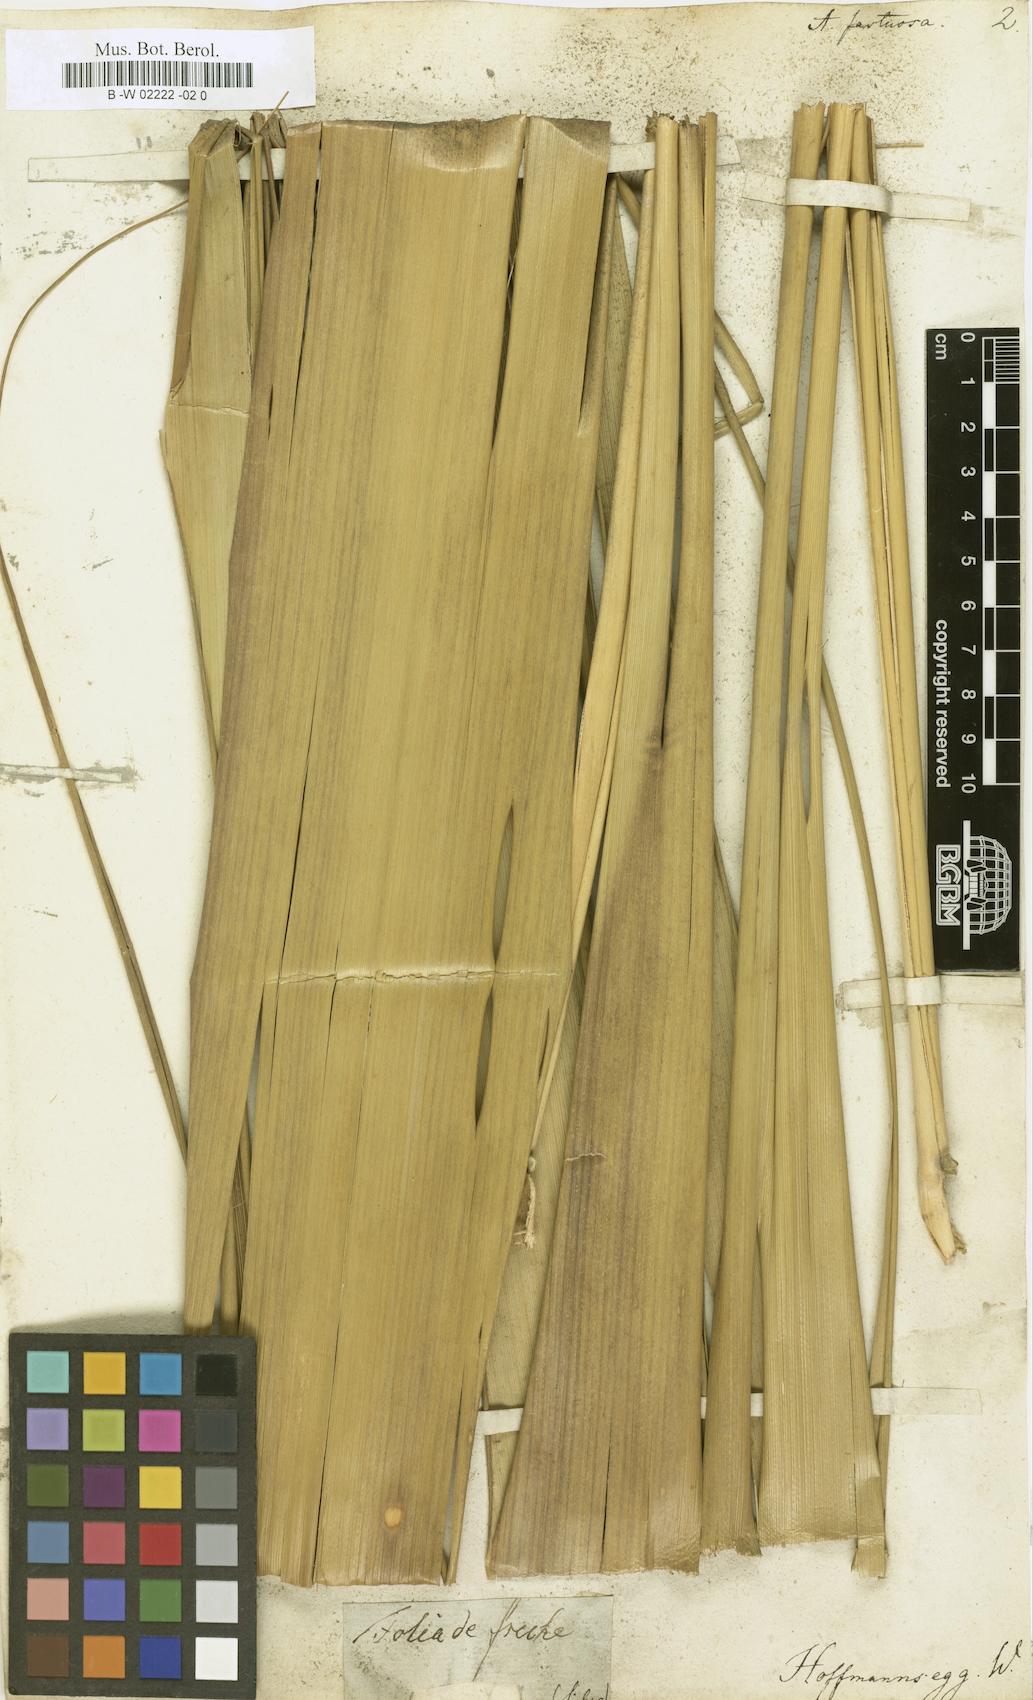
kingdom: Plantae
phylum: Tracheophyta
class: Liliopsida
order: Poales
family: Poaceae
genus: Gynerium
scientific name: Gynerium sagittatum
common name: Wild cane
